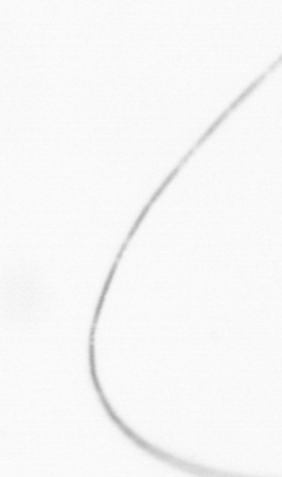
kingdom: Chromista
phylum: Ochrophyta
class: Bacillariophyceae
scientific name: Bacillariophyceae
